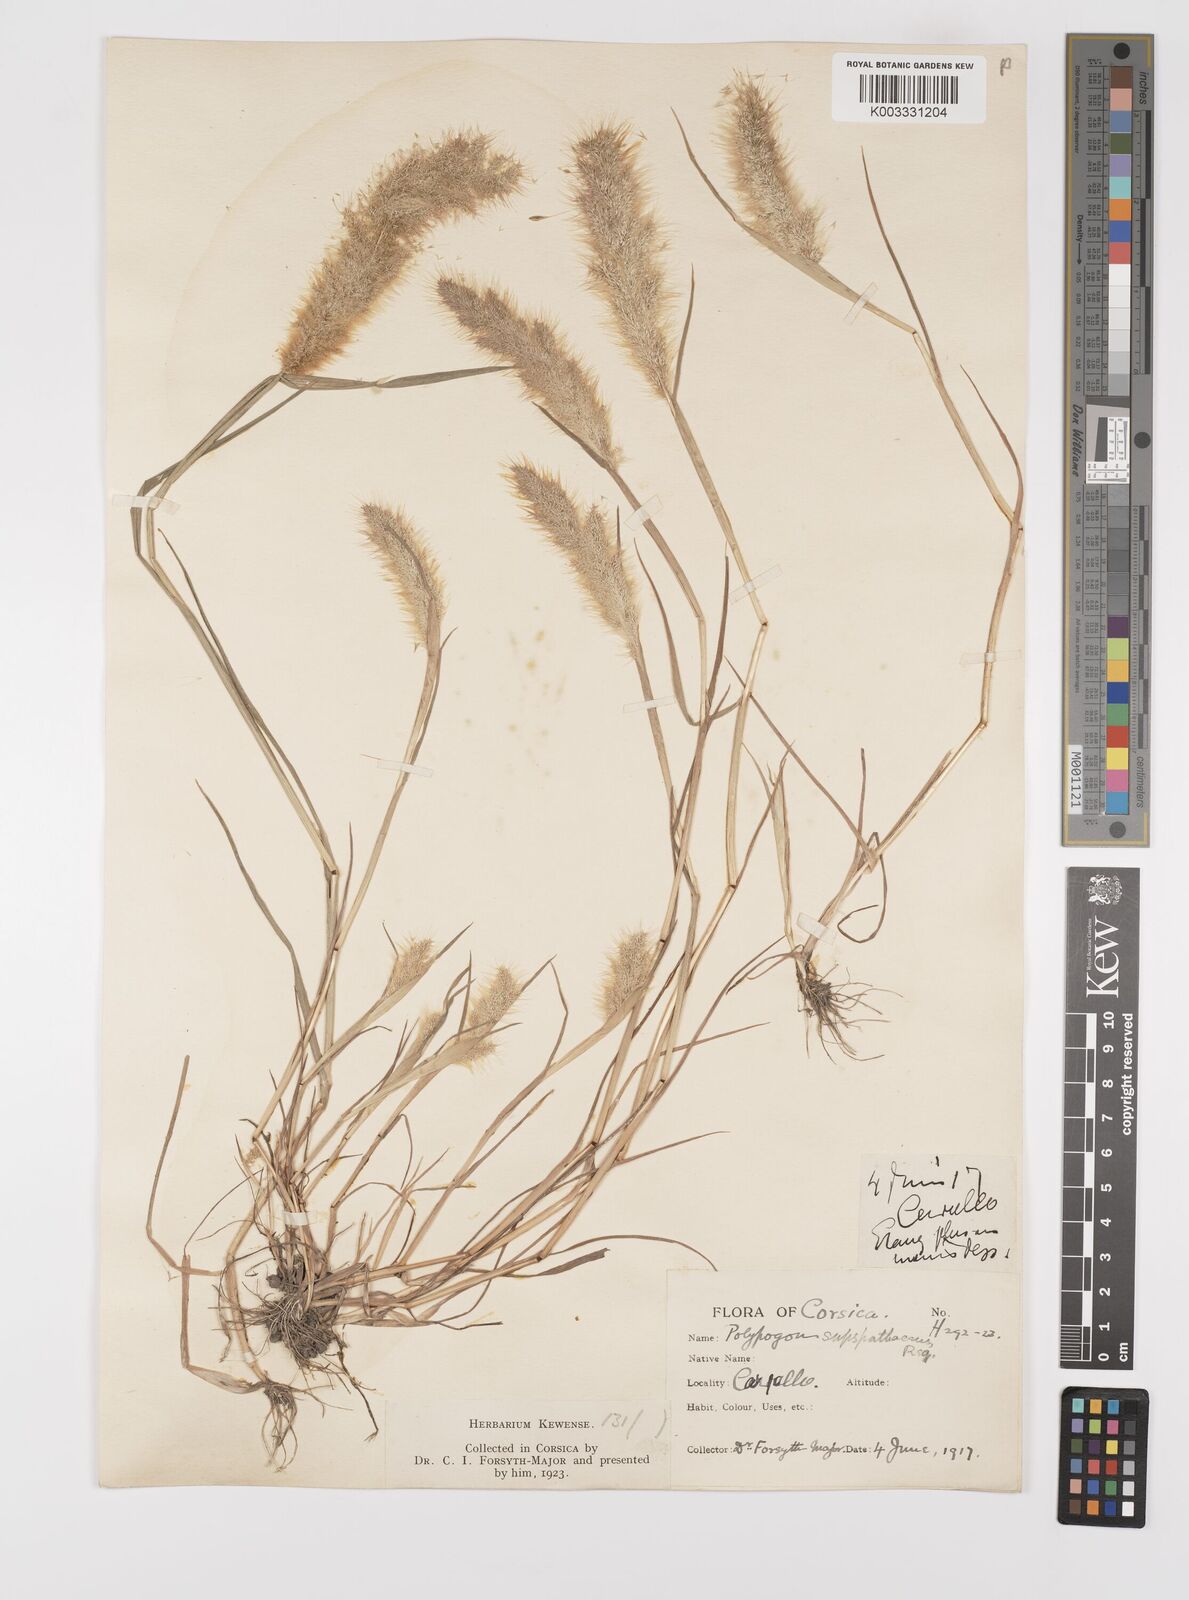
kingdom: Plantae
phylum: Tracheophyta
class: Liliopsida
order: Poales
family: Poaceae
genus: Polypogon
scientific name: Polypogon maritimus
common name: Mediterranean rabbitsfoot grass
